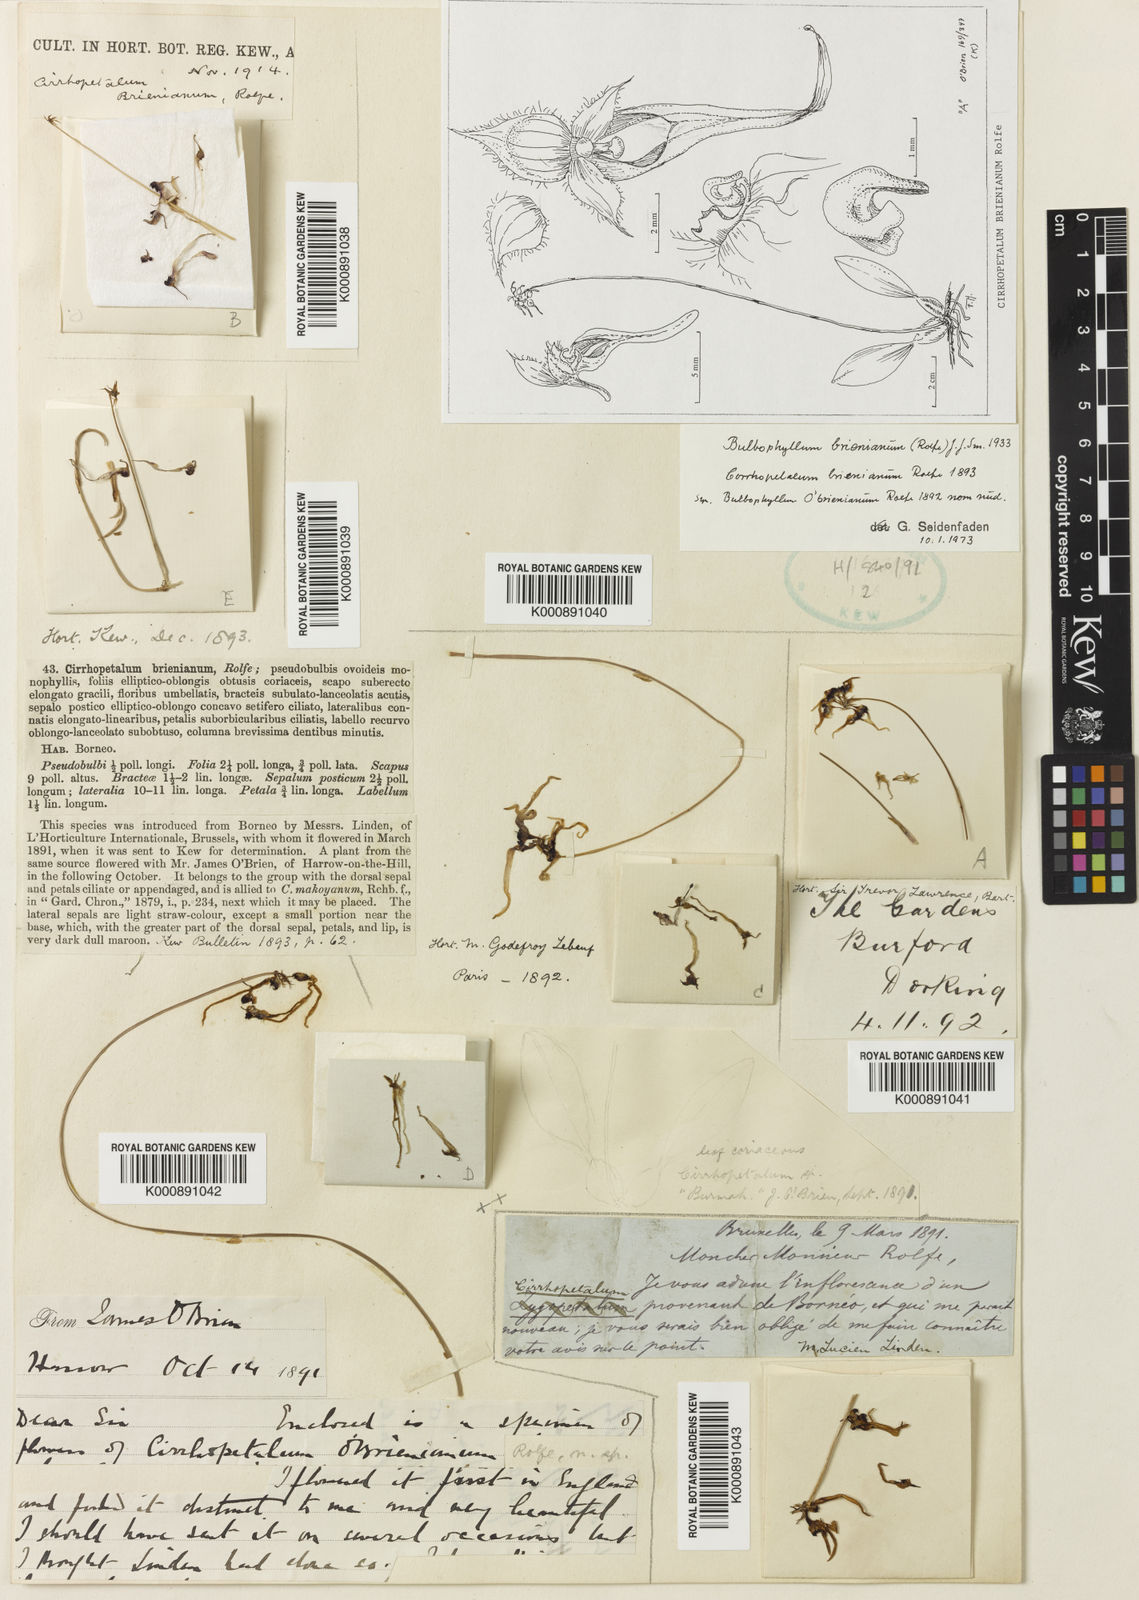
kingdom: Plantae
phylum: Tracheophyta
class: Liliopsida
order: Asparagales
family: Orchidaceae
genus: Bulbophyllum
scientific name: Bulbophyllum
